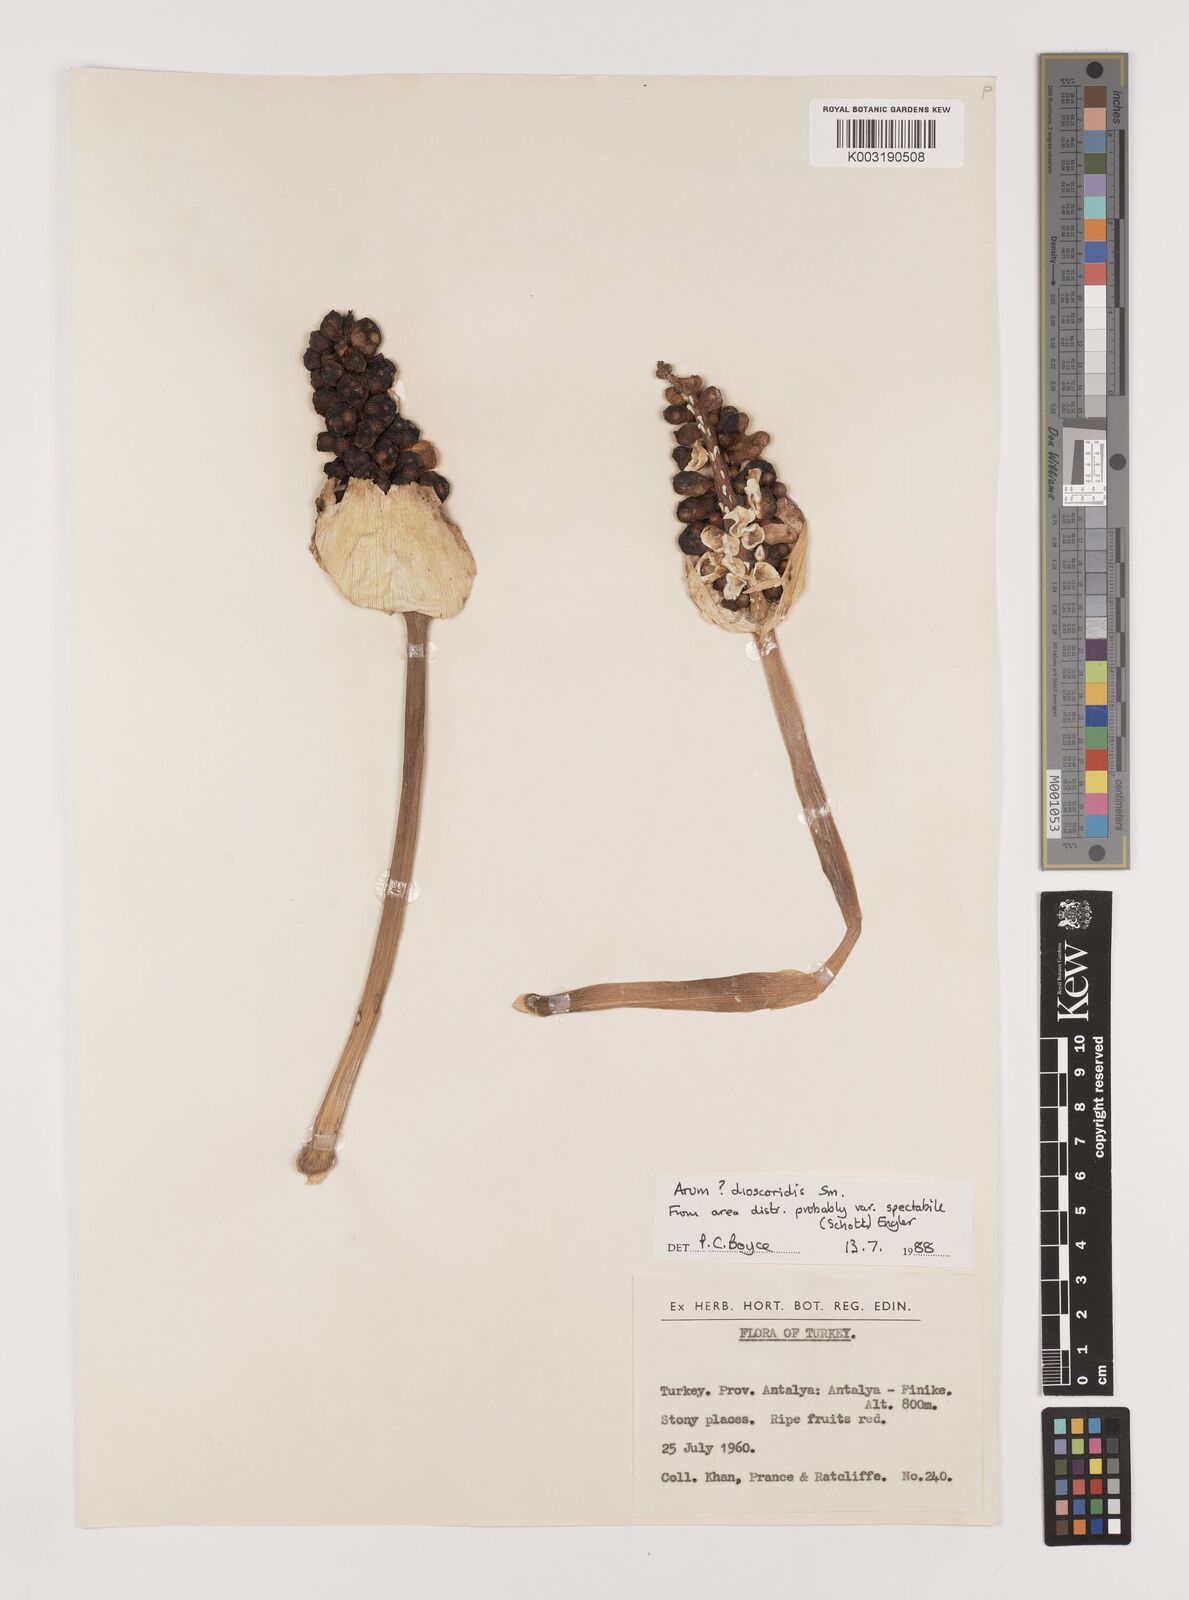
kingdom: Plantae
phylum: Tracheophyta
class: Liliopsida
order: Alismatales
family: Araceae
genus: Arum
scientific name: Arum dioscoridis
